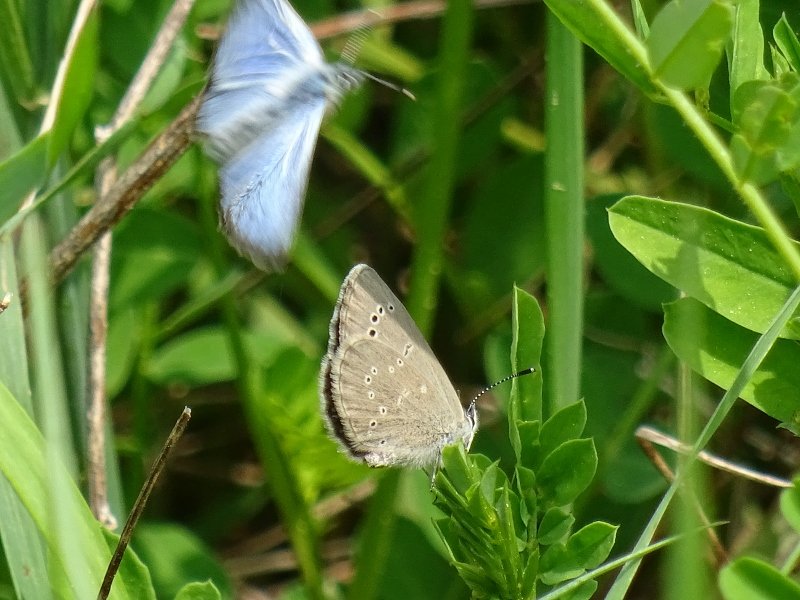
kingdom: Animalia
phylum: Arthropoda
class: Insecta
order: Lepidoptera
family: Lycaenidae
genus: Glaucopsyche
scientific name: Glaucopsyche lygdamus
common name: Silvery Blue
